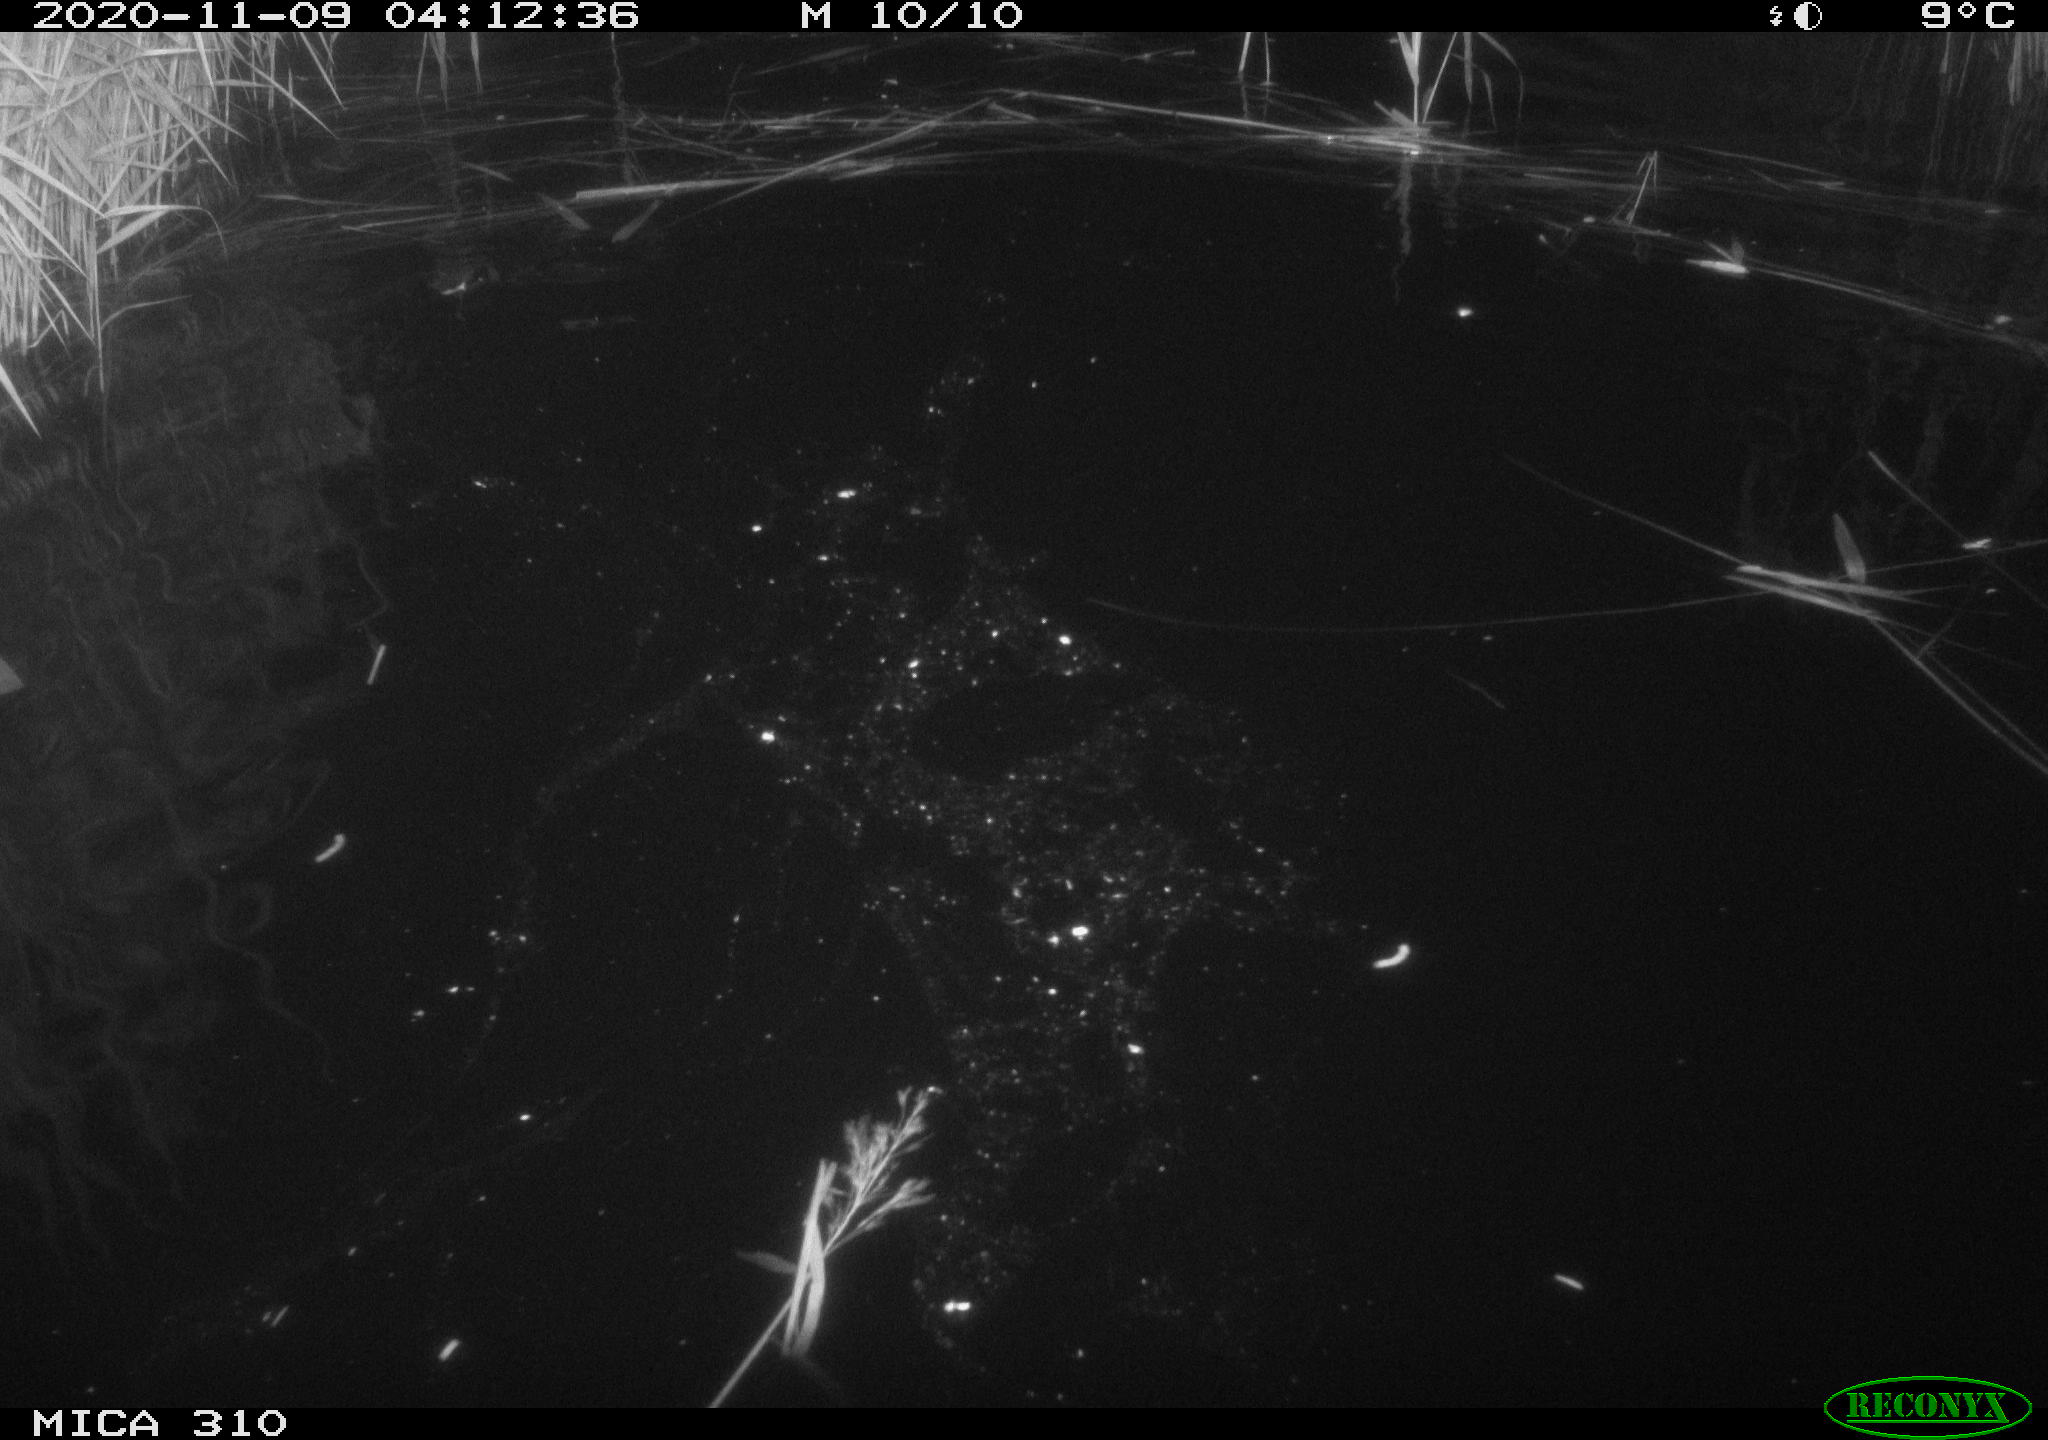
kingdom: Animalia
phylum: Chordata
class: Mammalia
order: Rodentia
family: Cricetidae
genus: Ondatra
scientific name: Ondatra zibethicus
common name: Muskrat
